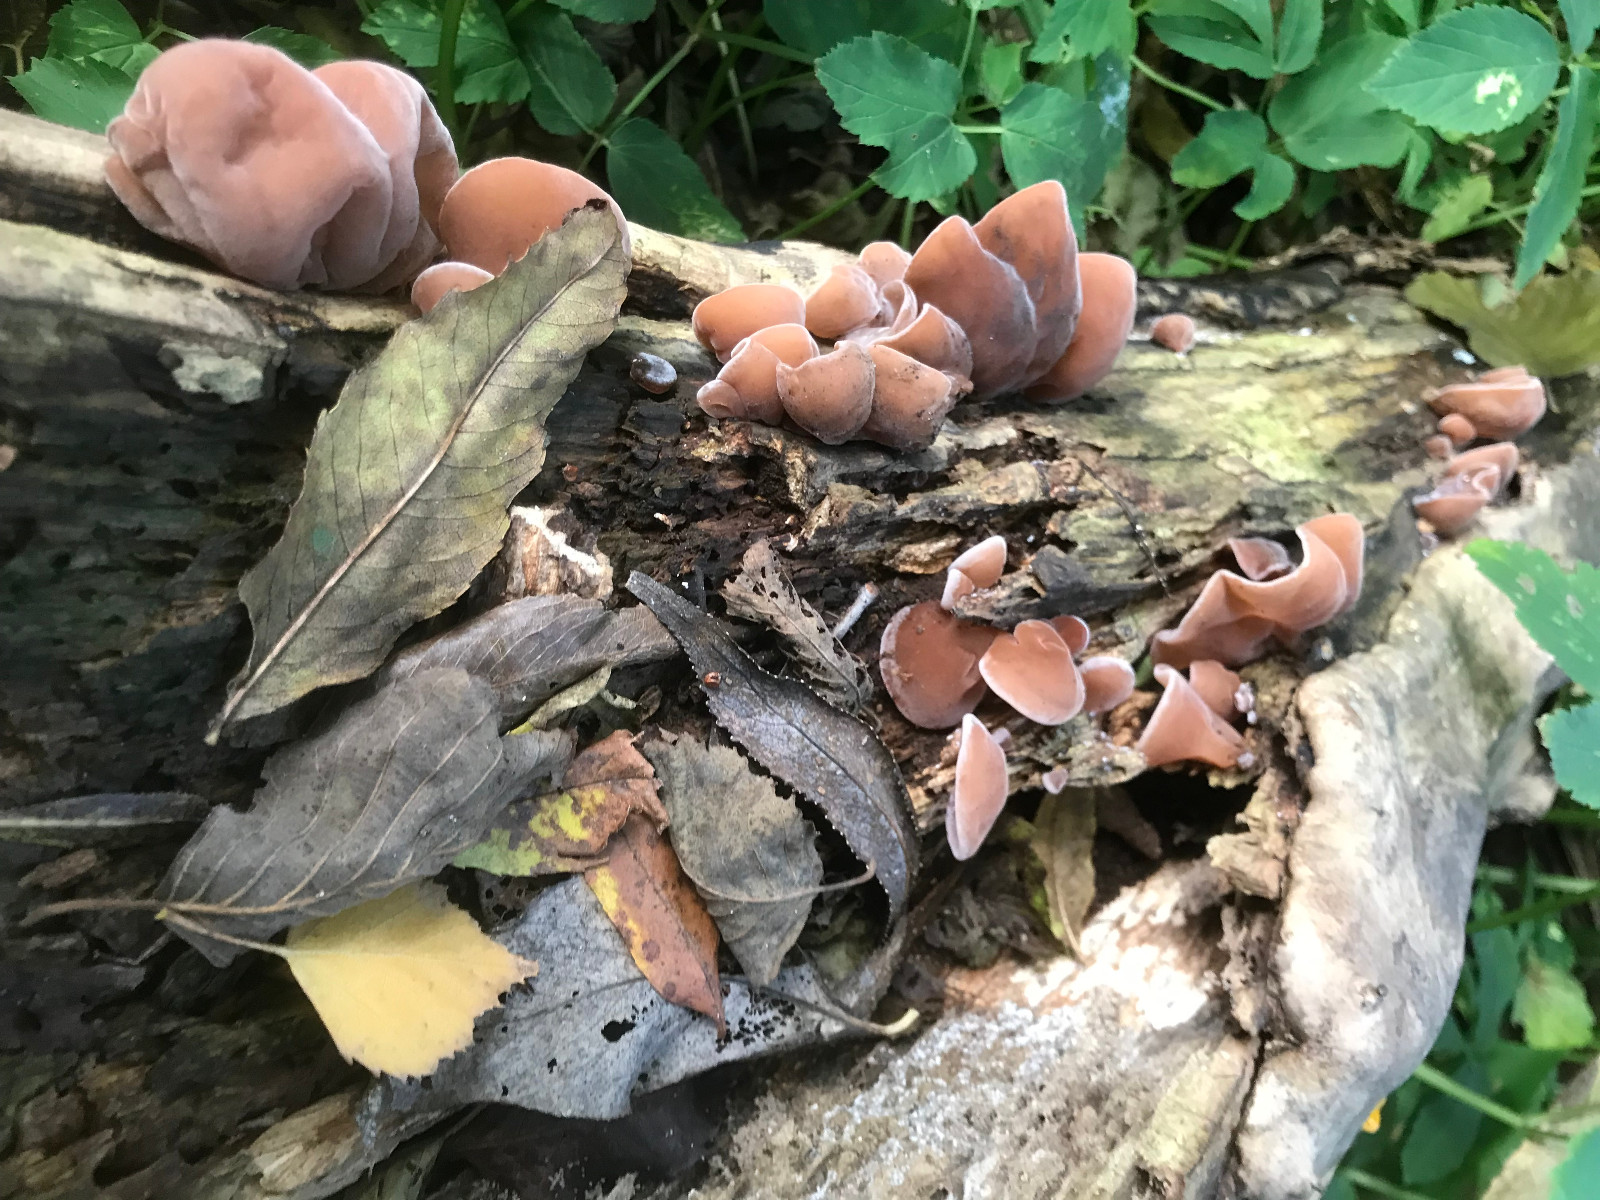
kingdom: Fungi
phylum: Basidiomycota
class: Agaricomycetes
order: Auriculariales
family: Auriculariaceae
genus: Auricularia
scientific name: Auricularia auricula-judae
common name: almindelig judasøre
